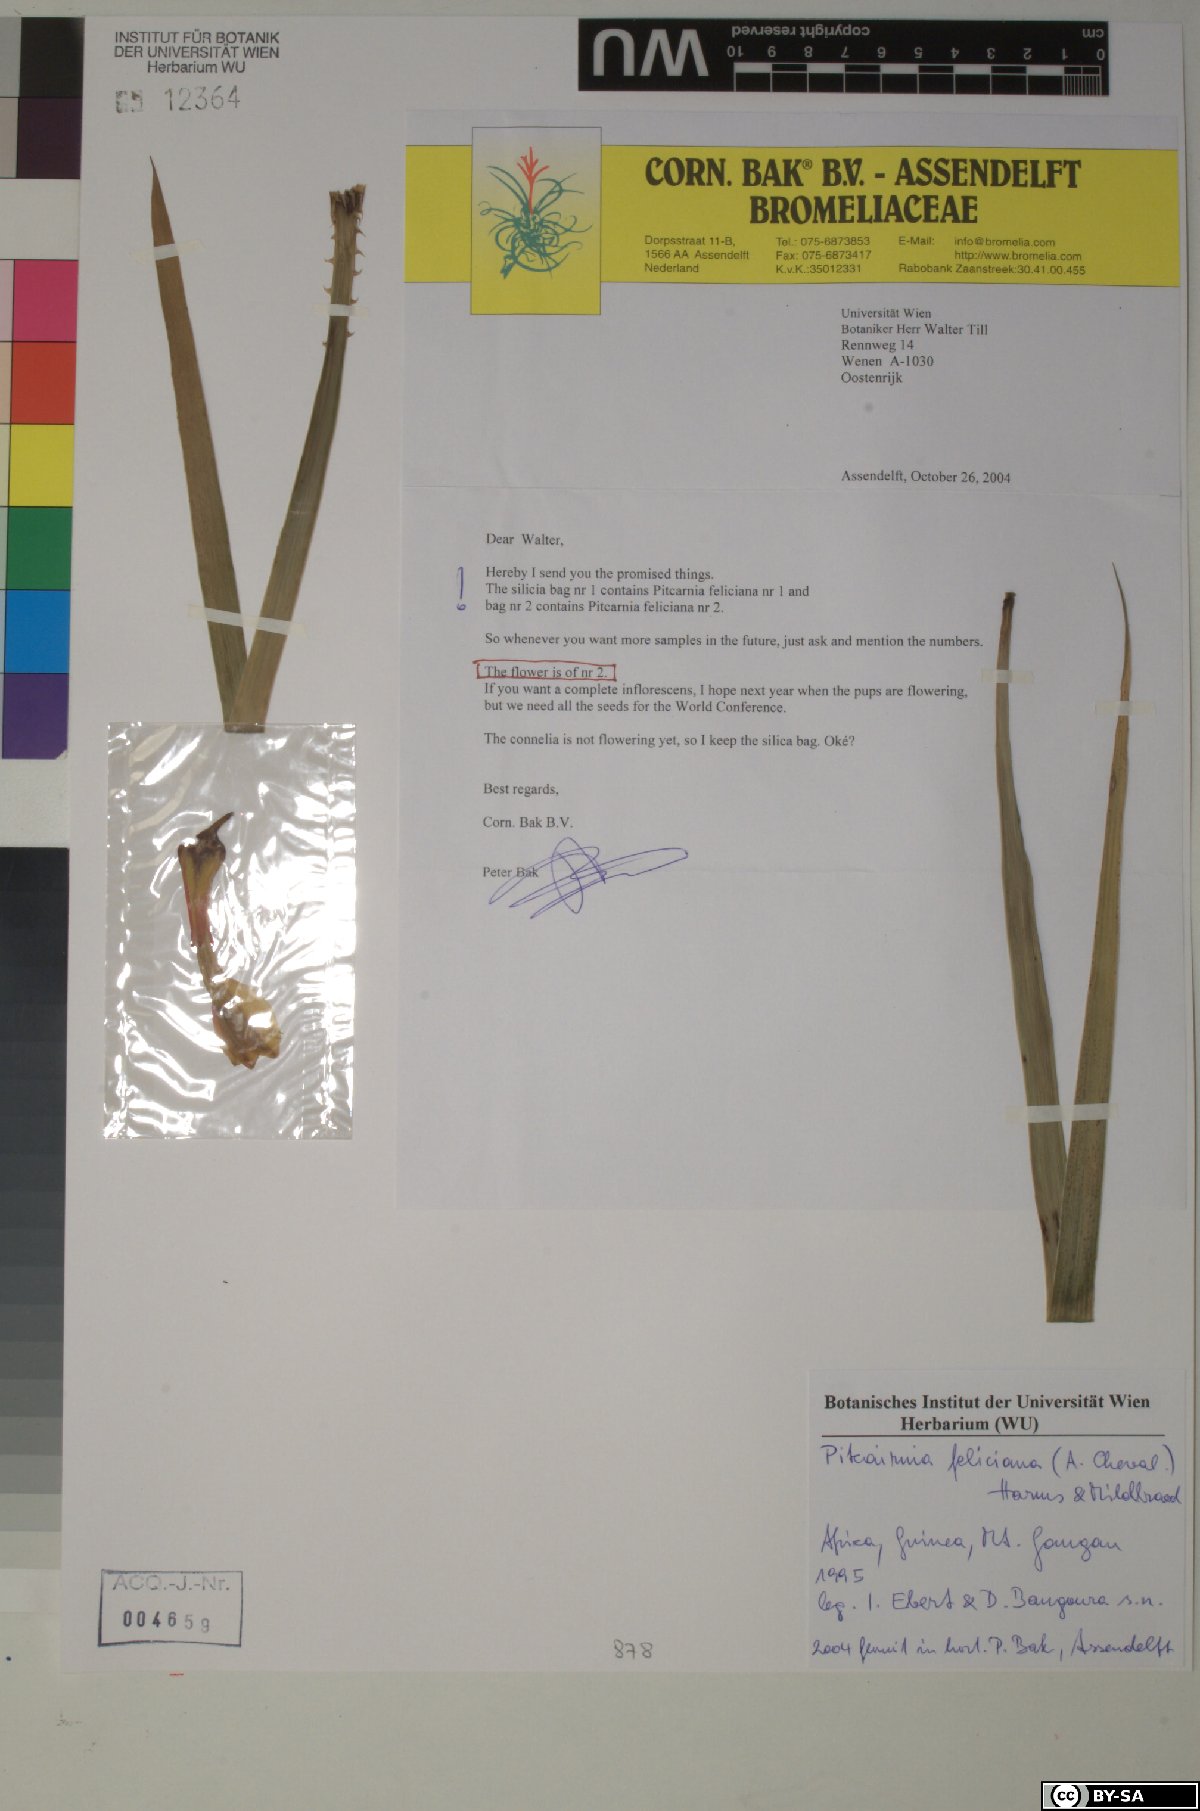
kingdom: Plantae
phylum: Tracheophyta
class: Liliopsida
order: Poales
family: Bromeliaceae
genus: Pitcairnia
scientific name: Pitcairnia feliciana
